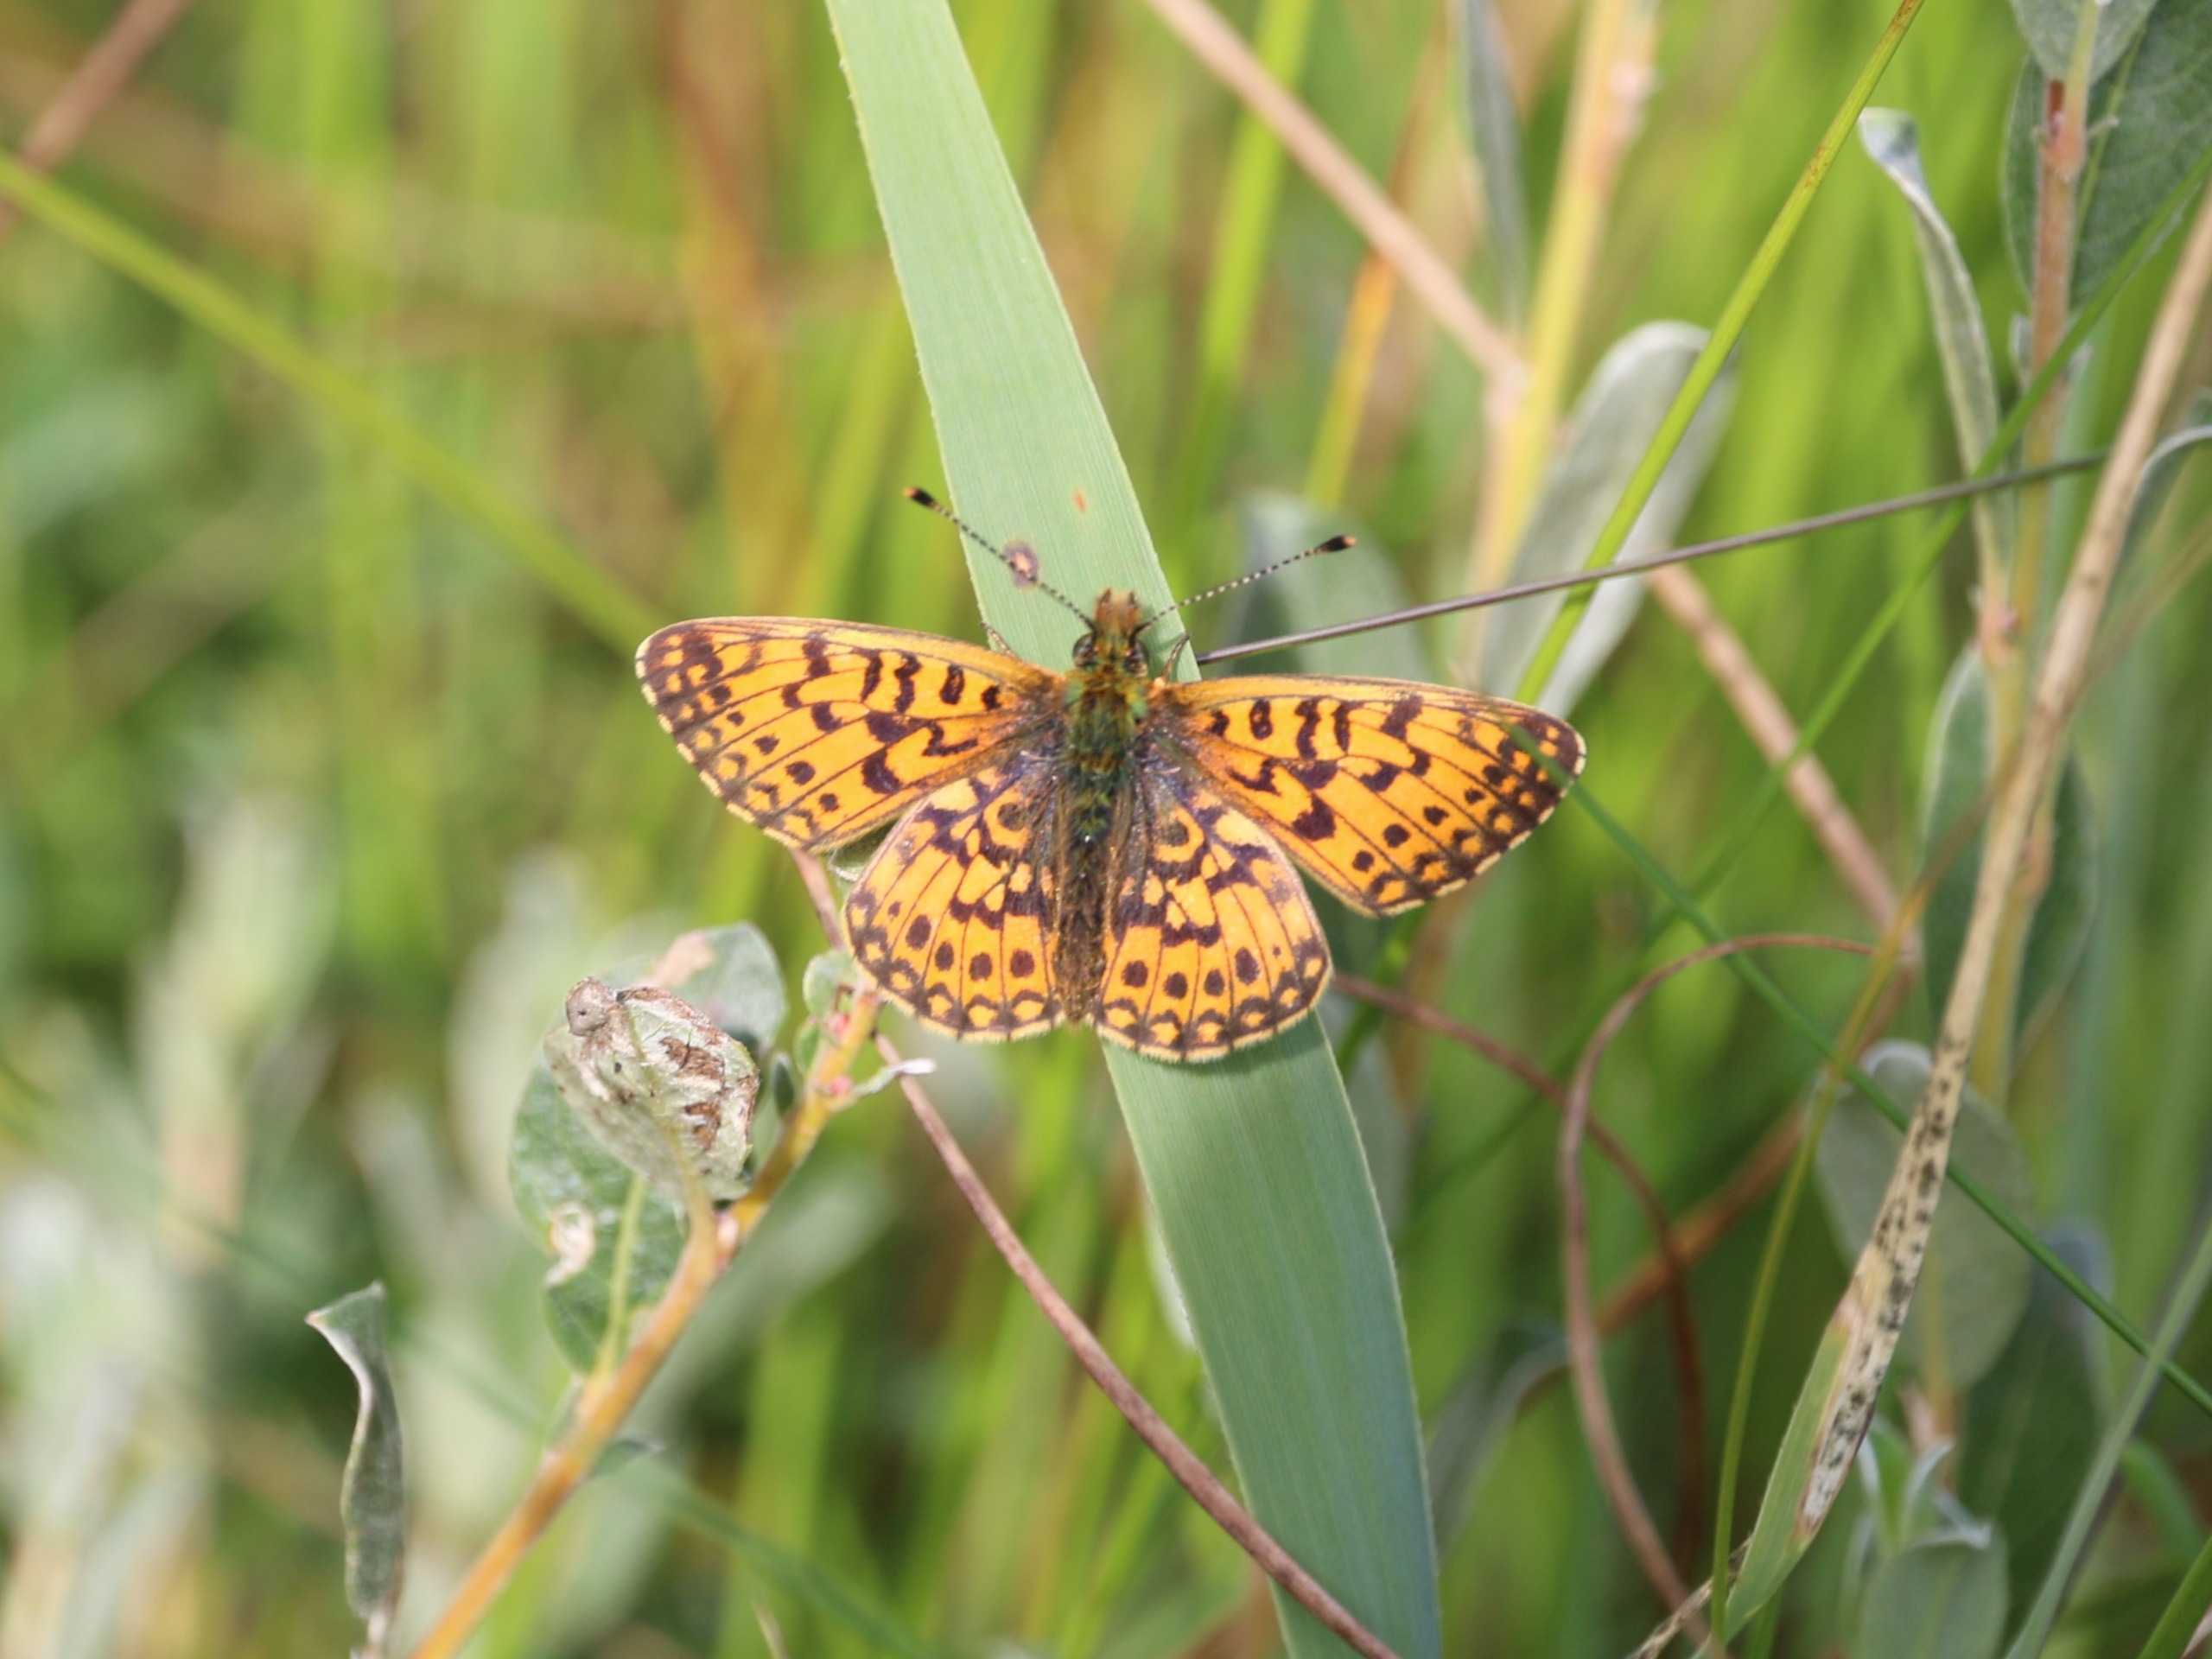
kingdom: Animalia
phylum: Arthropoda
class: Insecta
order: Lepidoptera
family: Nymphalidae
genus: Boloria
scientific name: Boloria selene
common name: Brunlig perlemorsommerfugl
